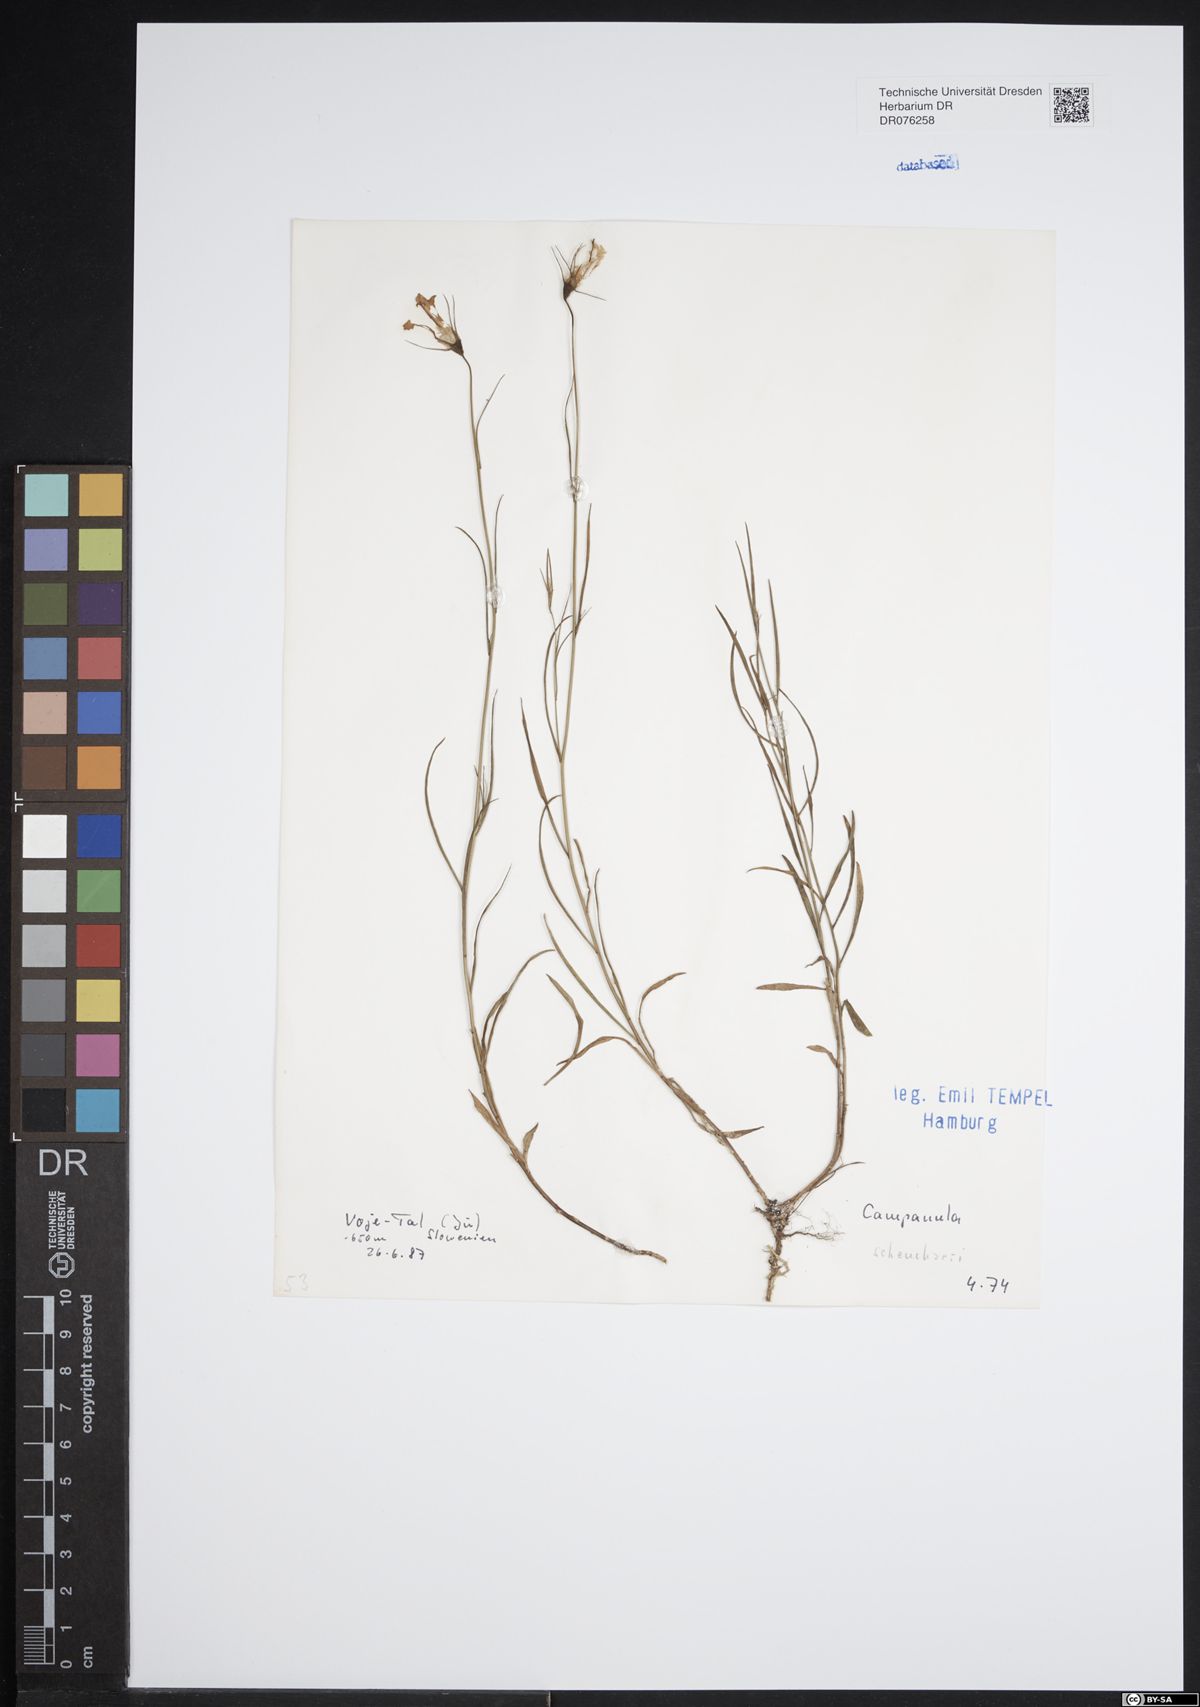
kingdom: Plantae
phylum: Tracheophyta
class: Magnoliopsida
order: Asterales
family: Campanulaceae
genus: Campanula
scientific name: Campanula scheuchzeri
